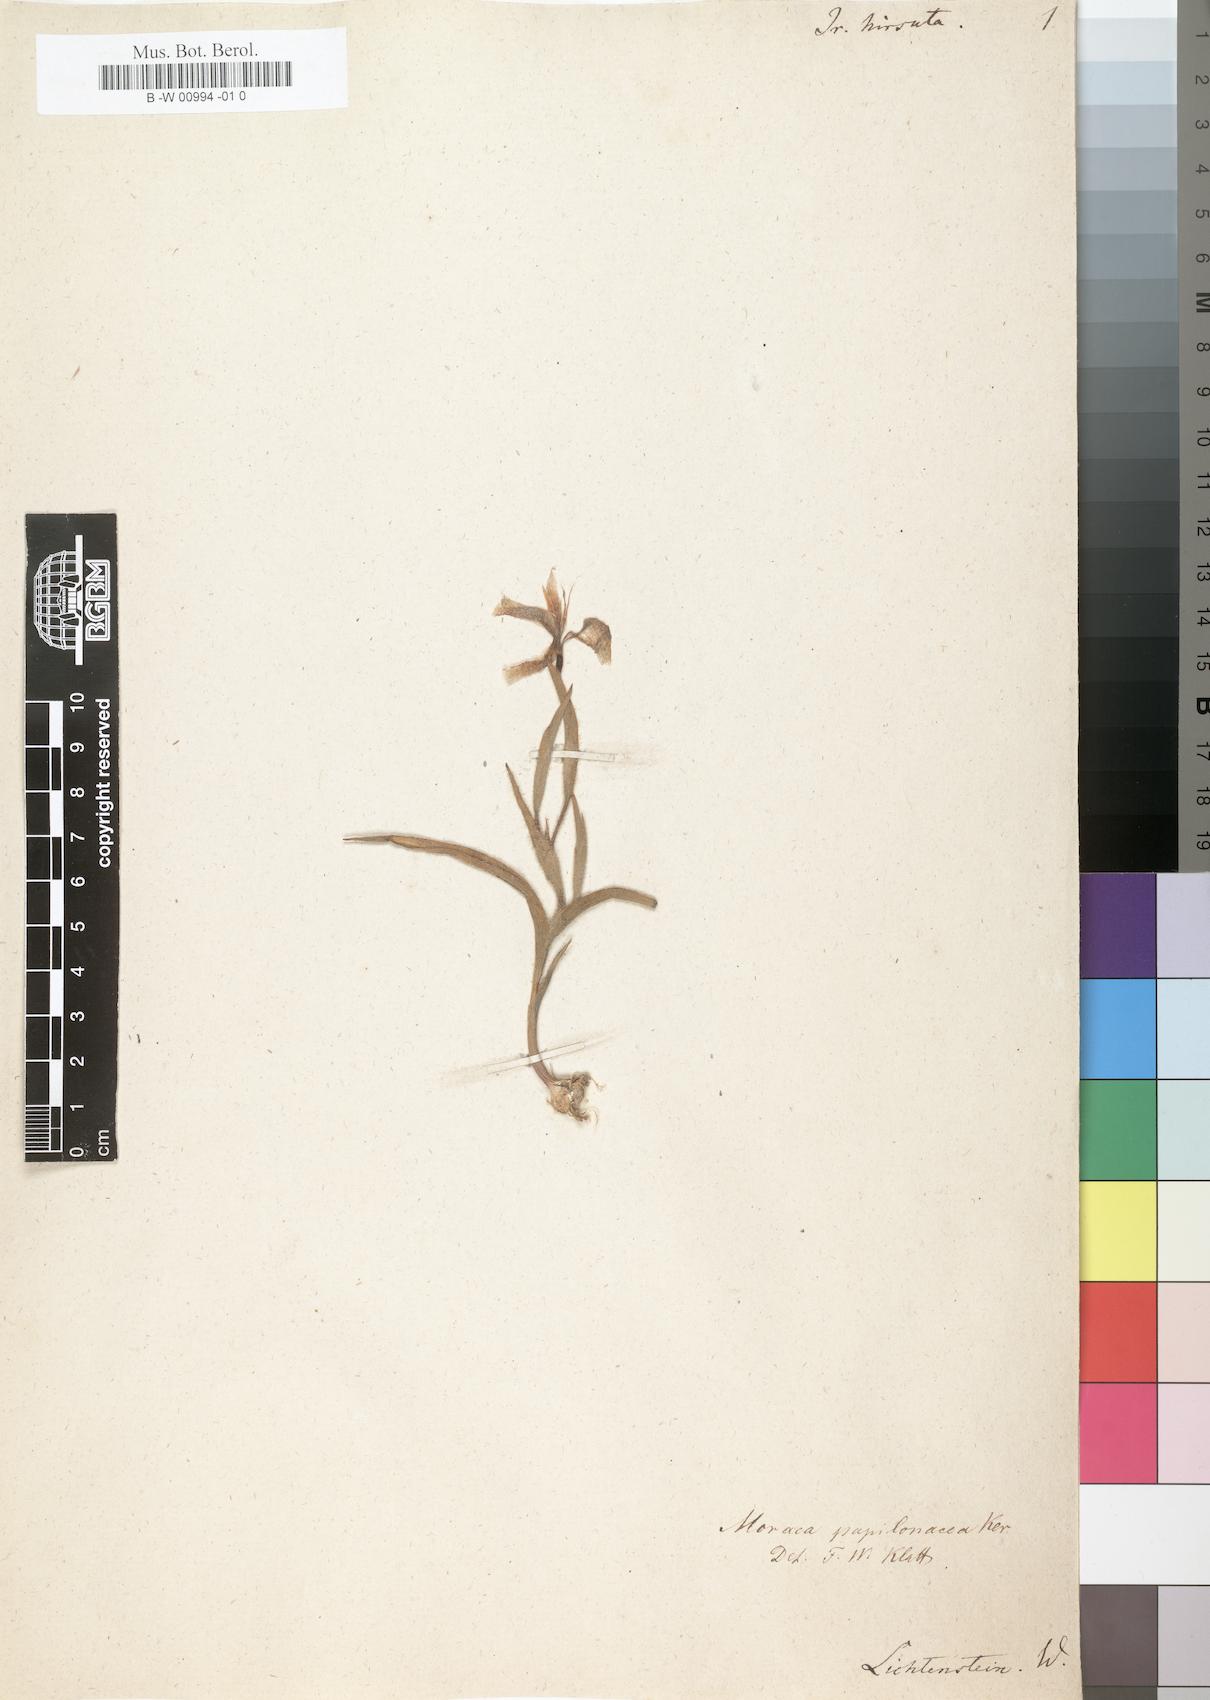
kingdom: Plantae
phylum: Tracheophyta
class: Liliopsida
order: Asparagales
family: Iridaceae
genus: Moraea
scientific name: Moraea papilionacea
